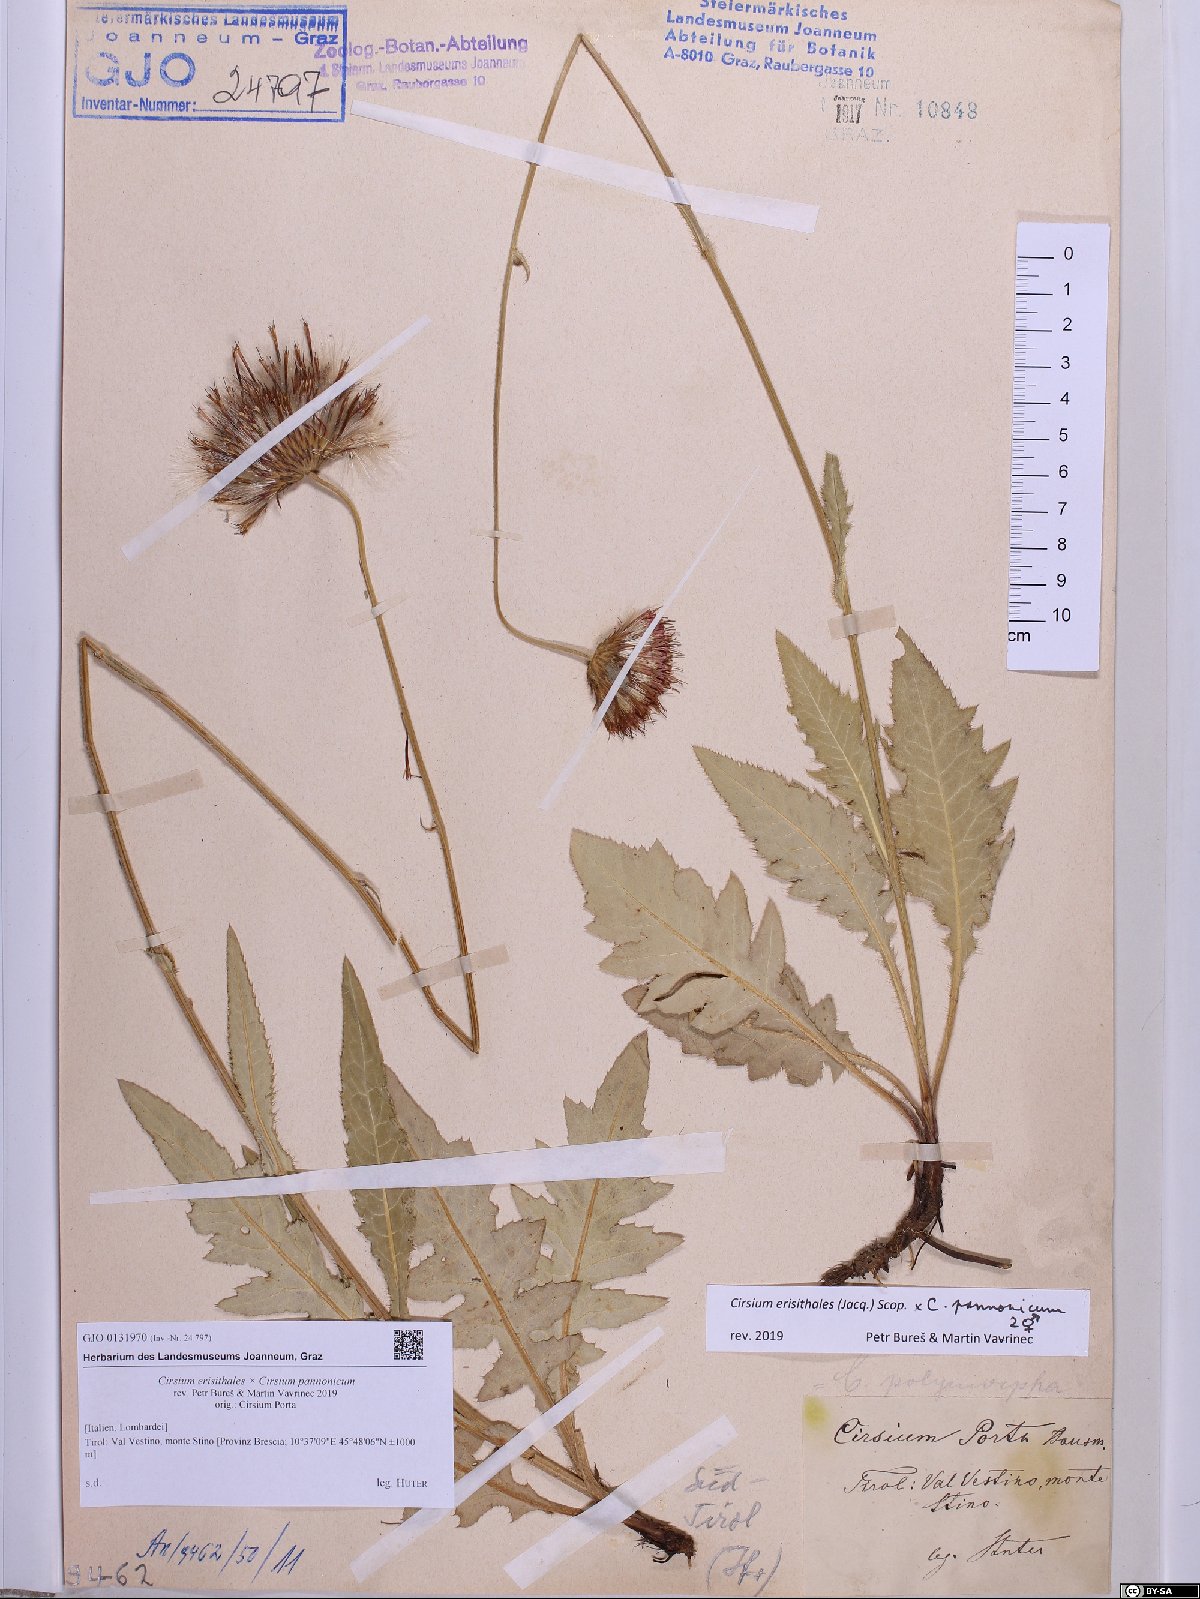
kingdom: Plantae
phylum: Tracheophyta
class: Magnoliopsida
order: Asterales
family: Asteraceae
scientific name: Asteraceae
